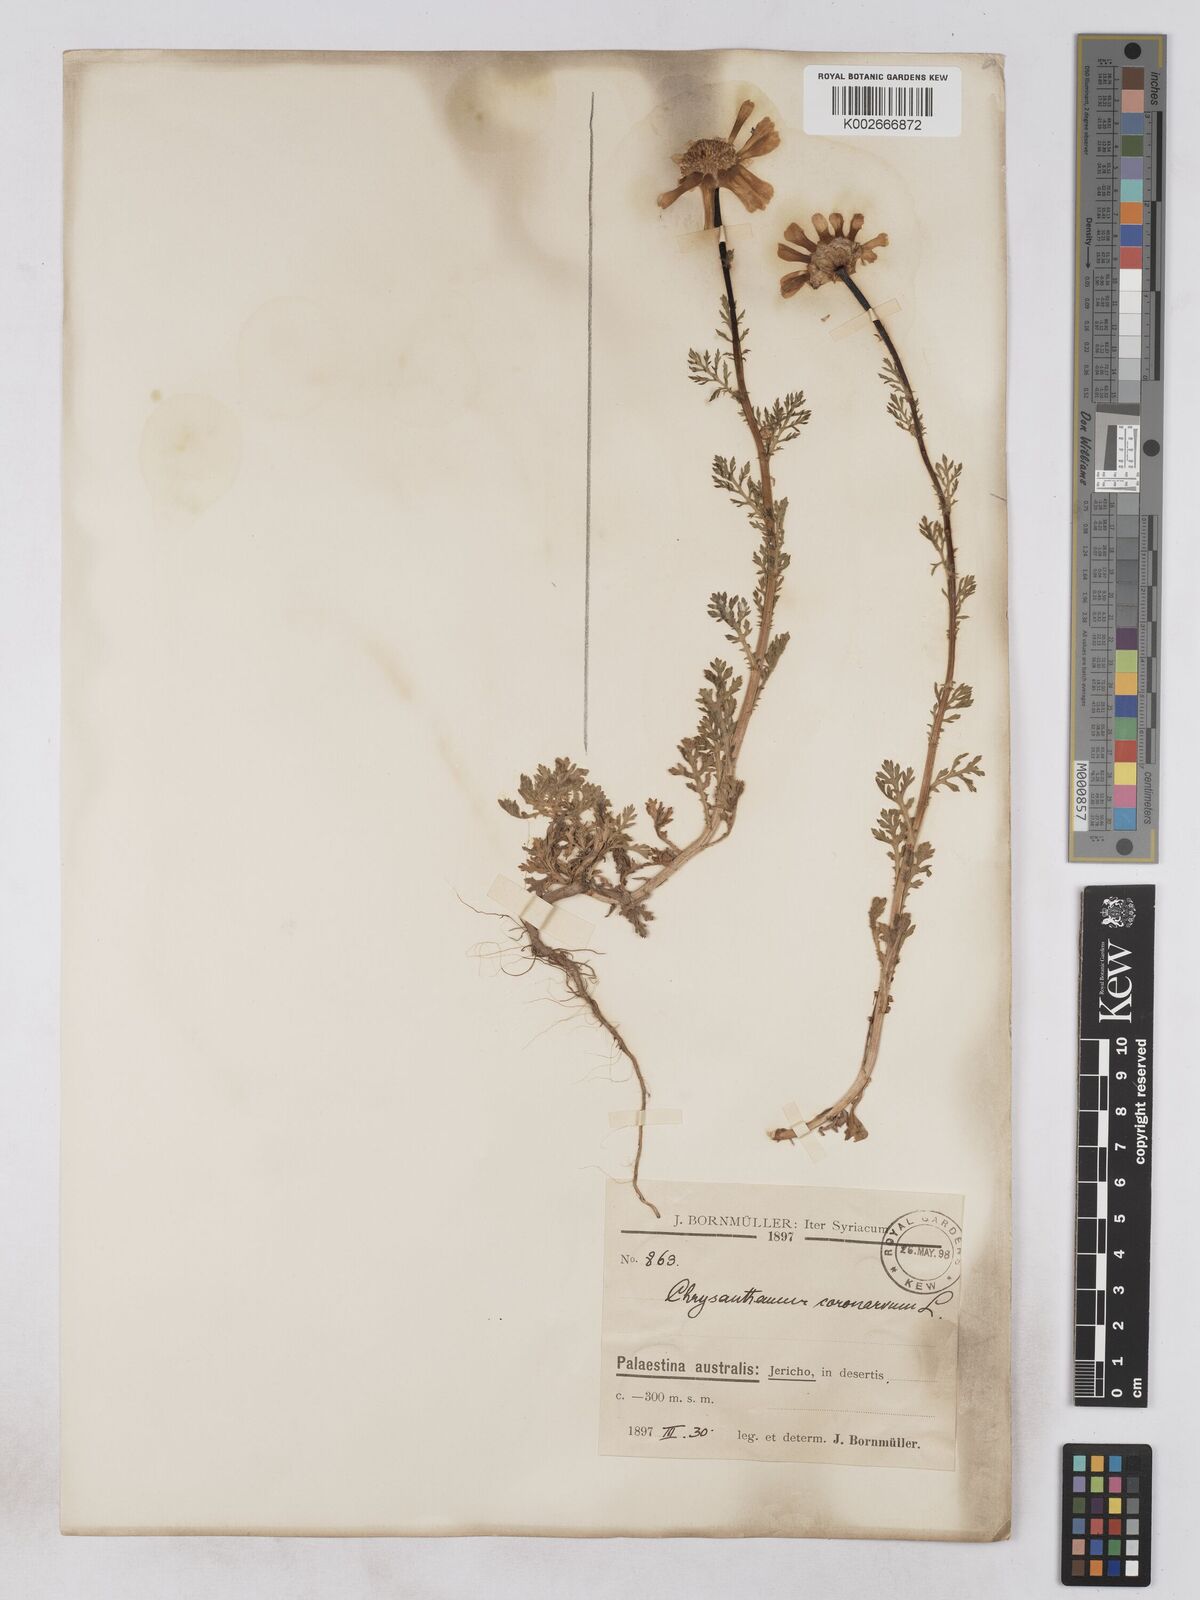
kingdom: Plantae
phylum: Tracheophyta
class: Magnoliopsida
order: Asterales
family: Asteraceae
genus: Glebionis
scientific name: Glebionis coronaria
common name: Crowndaisy
